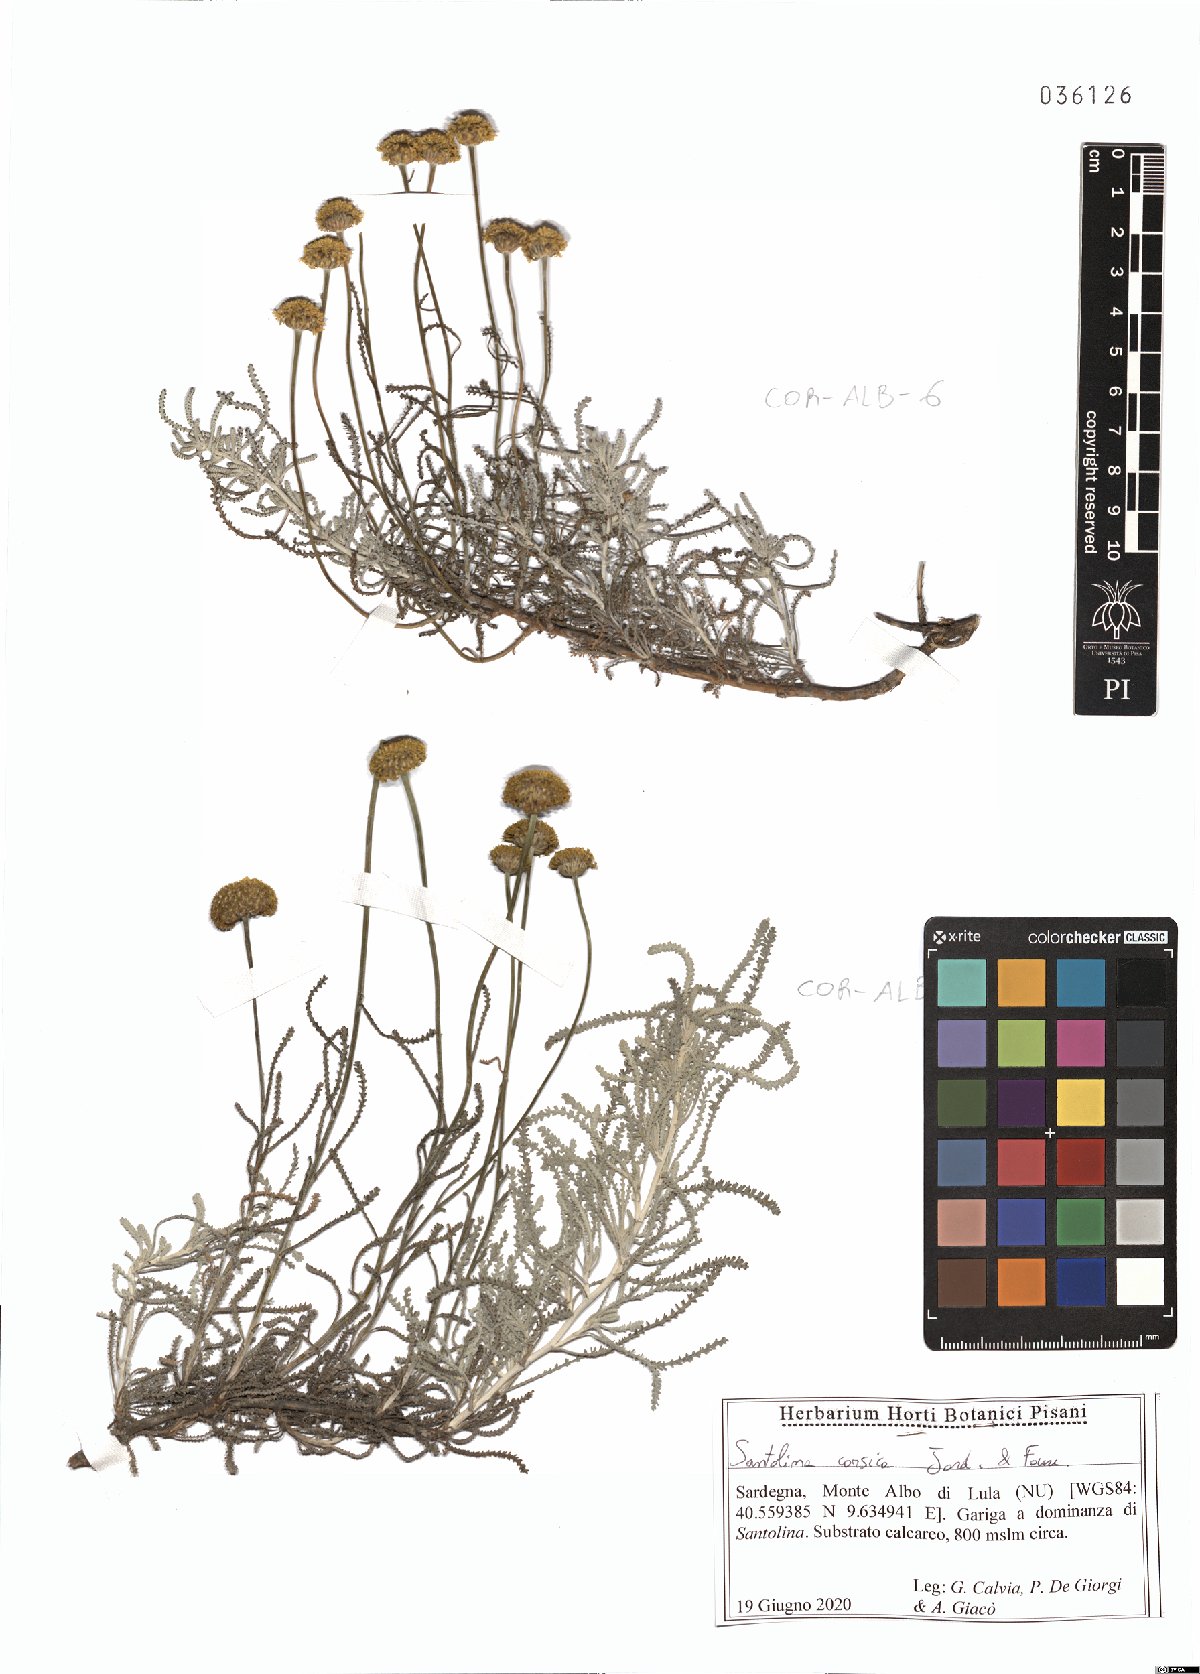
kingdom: Plantae
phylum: Tracheophyta
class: Magnoliopsida
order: Asterales
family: Asteraceae
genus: Santolina
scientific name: Santolina corsica
